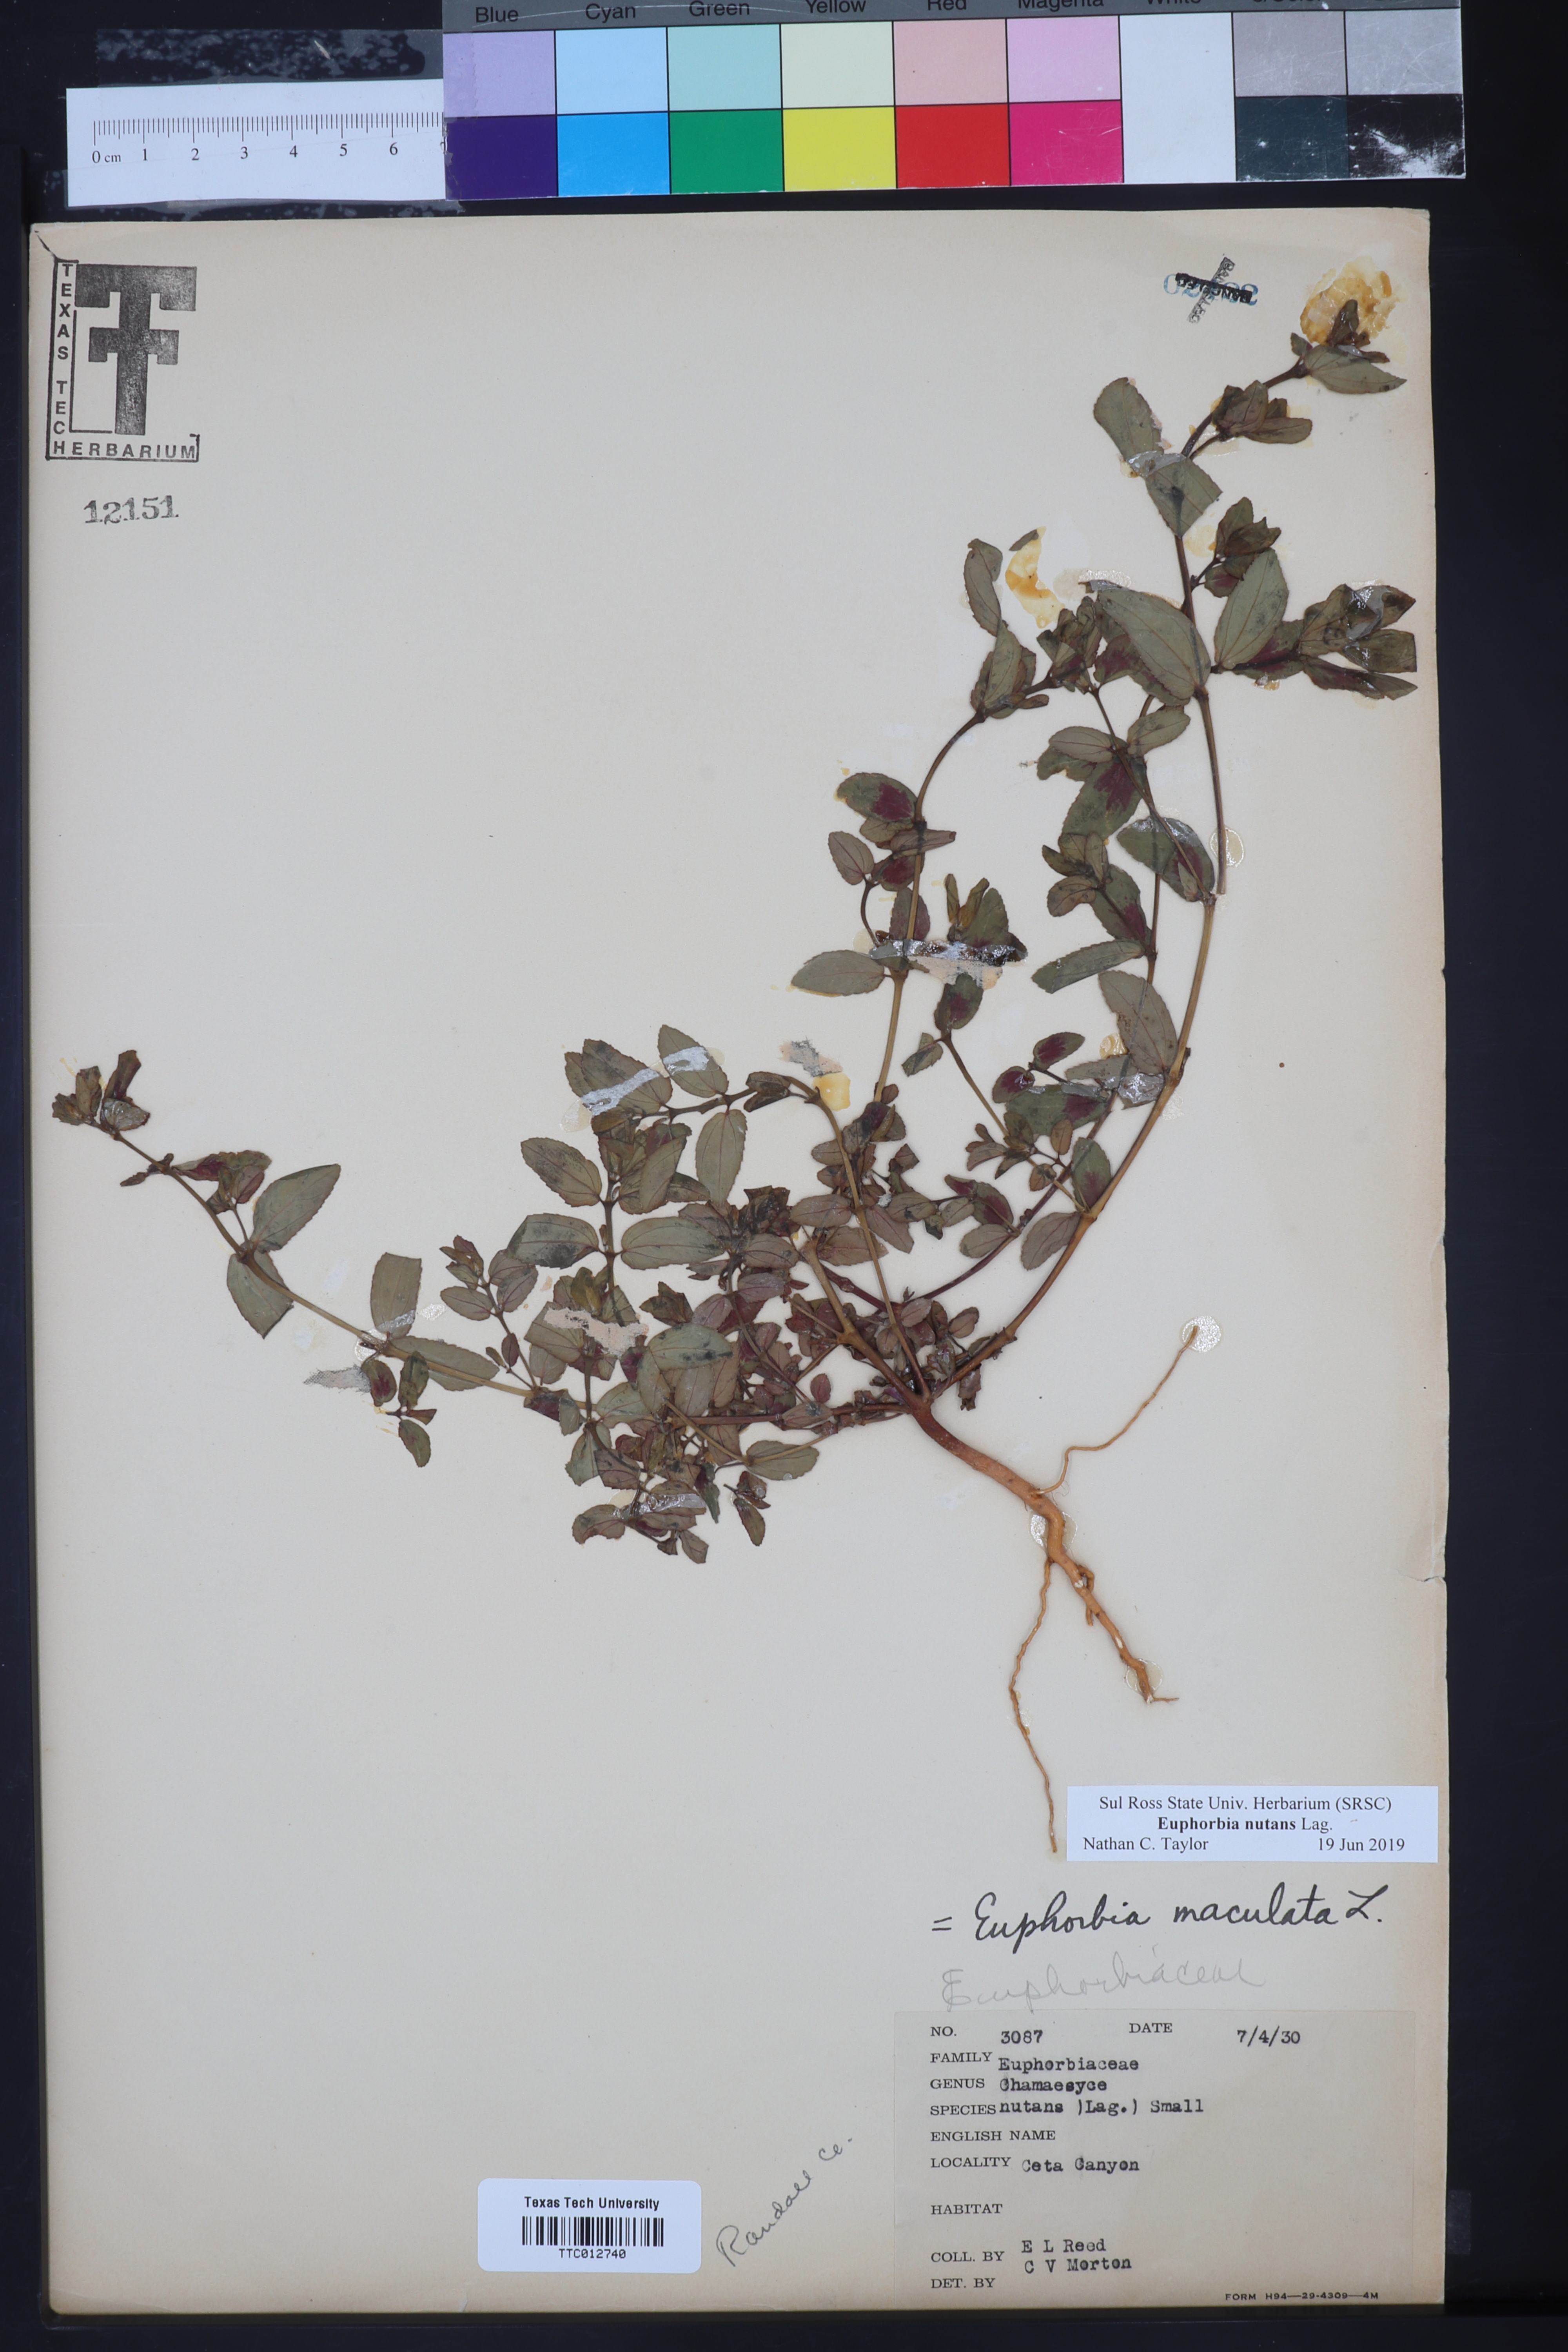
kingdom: Plantae
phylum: Tracheophyta
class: Magnoliopsida
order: Malpighiales
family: Euphorbiaceae
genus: Euphorbia
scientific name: Euphorbia nutans
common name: Eyebane
